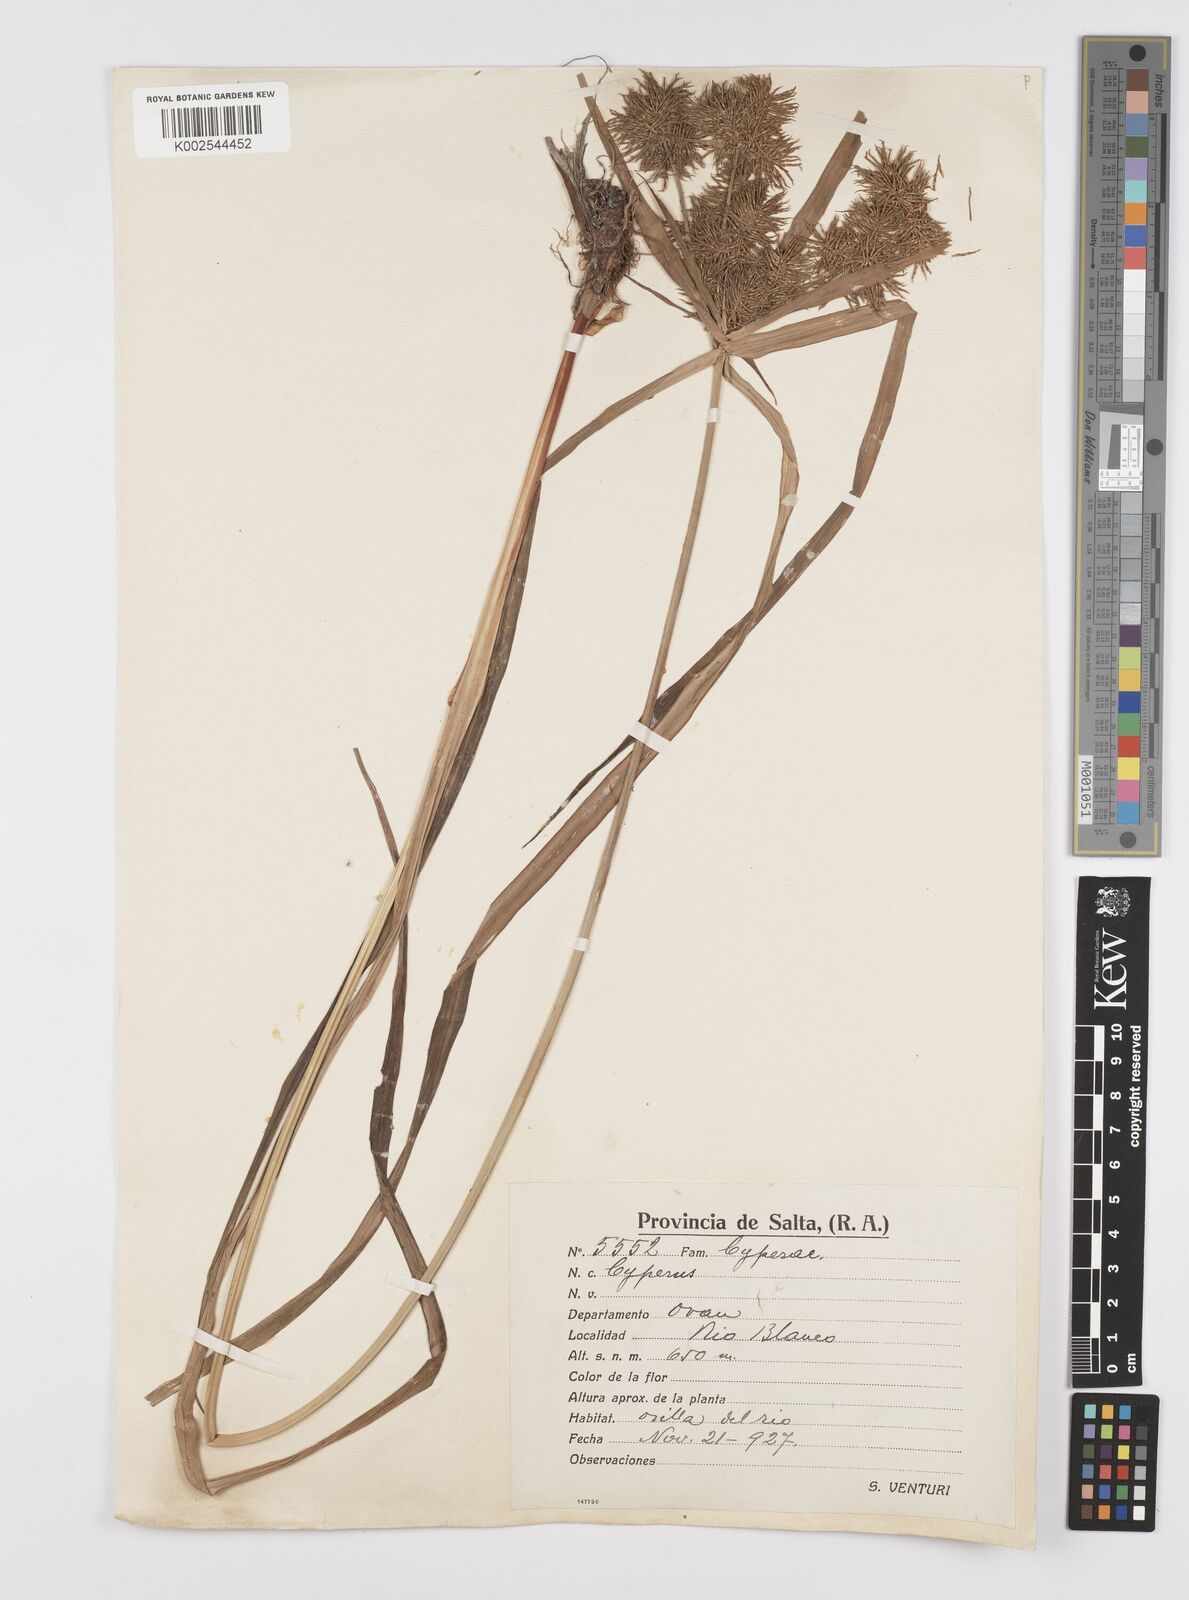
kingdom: Plantae
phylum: Tracheophyta
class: Liliopsida
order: Poales
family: Cyperaceae
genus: Cyperus
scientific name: Cyperus
